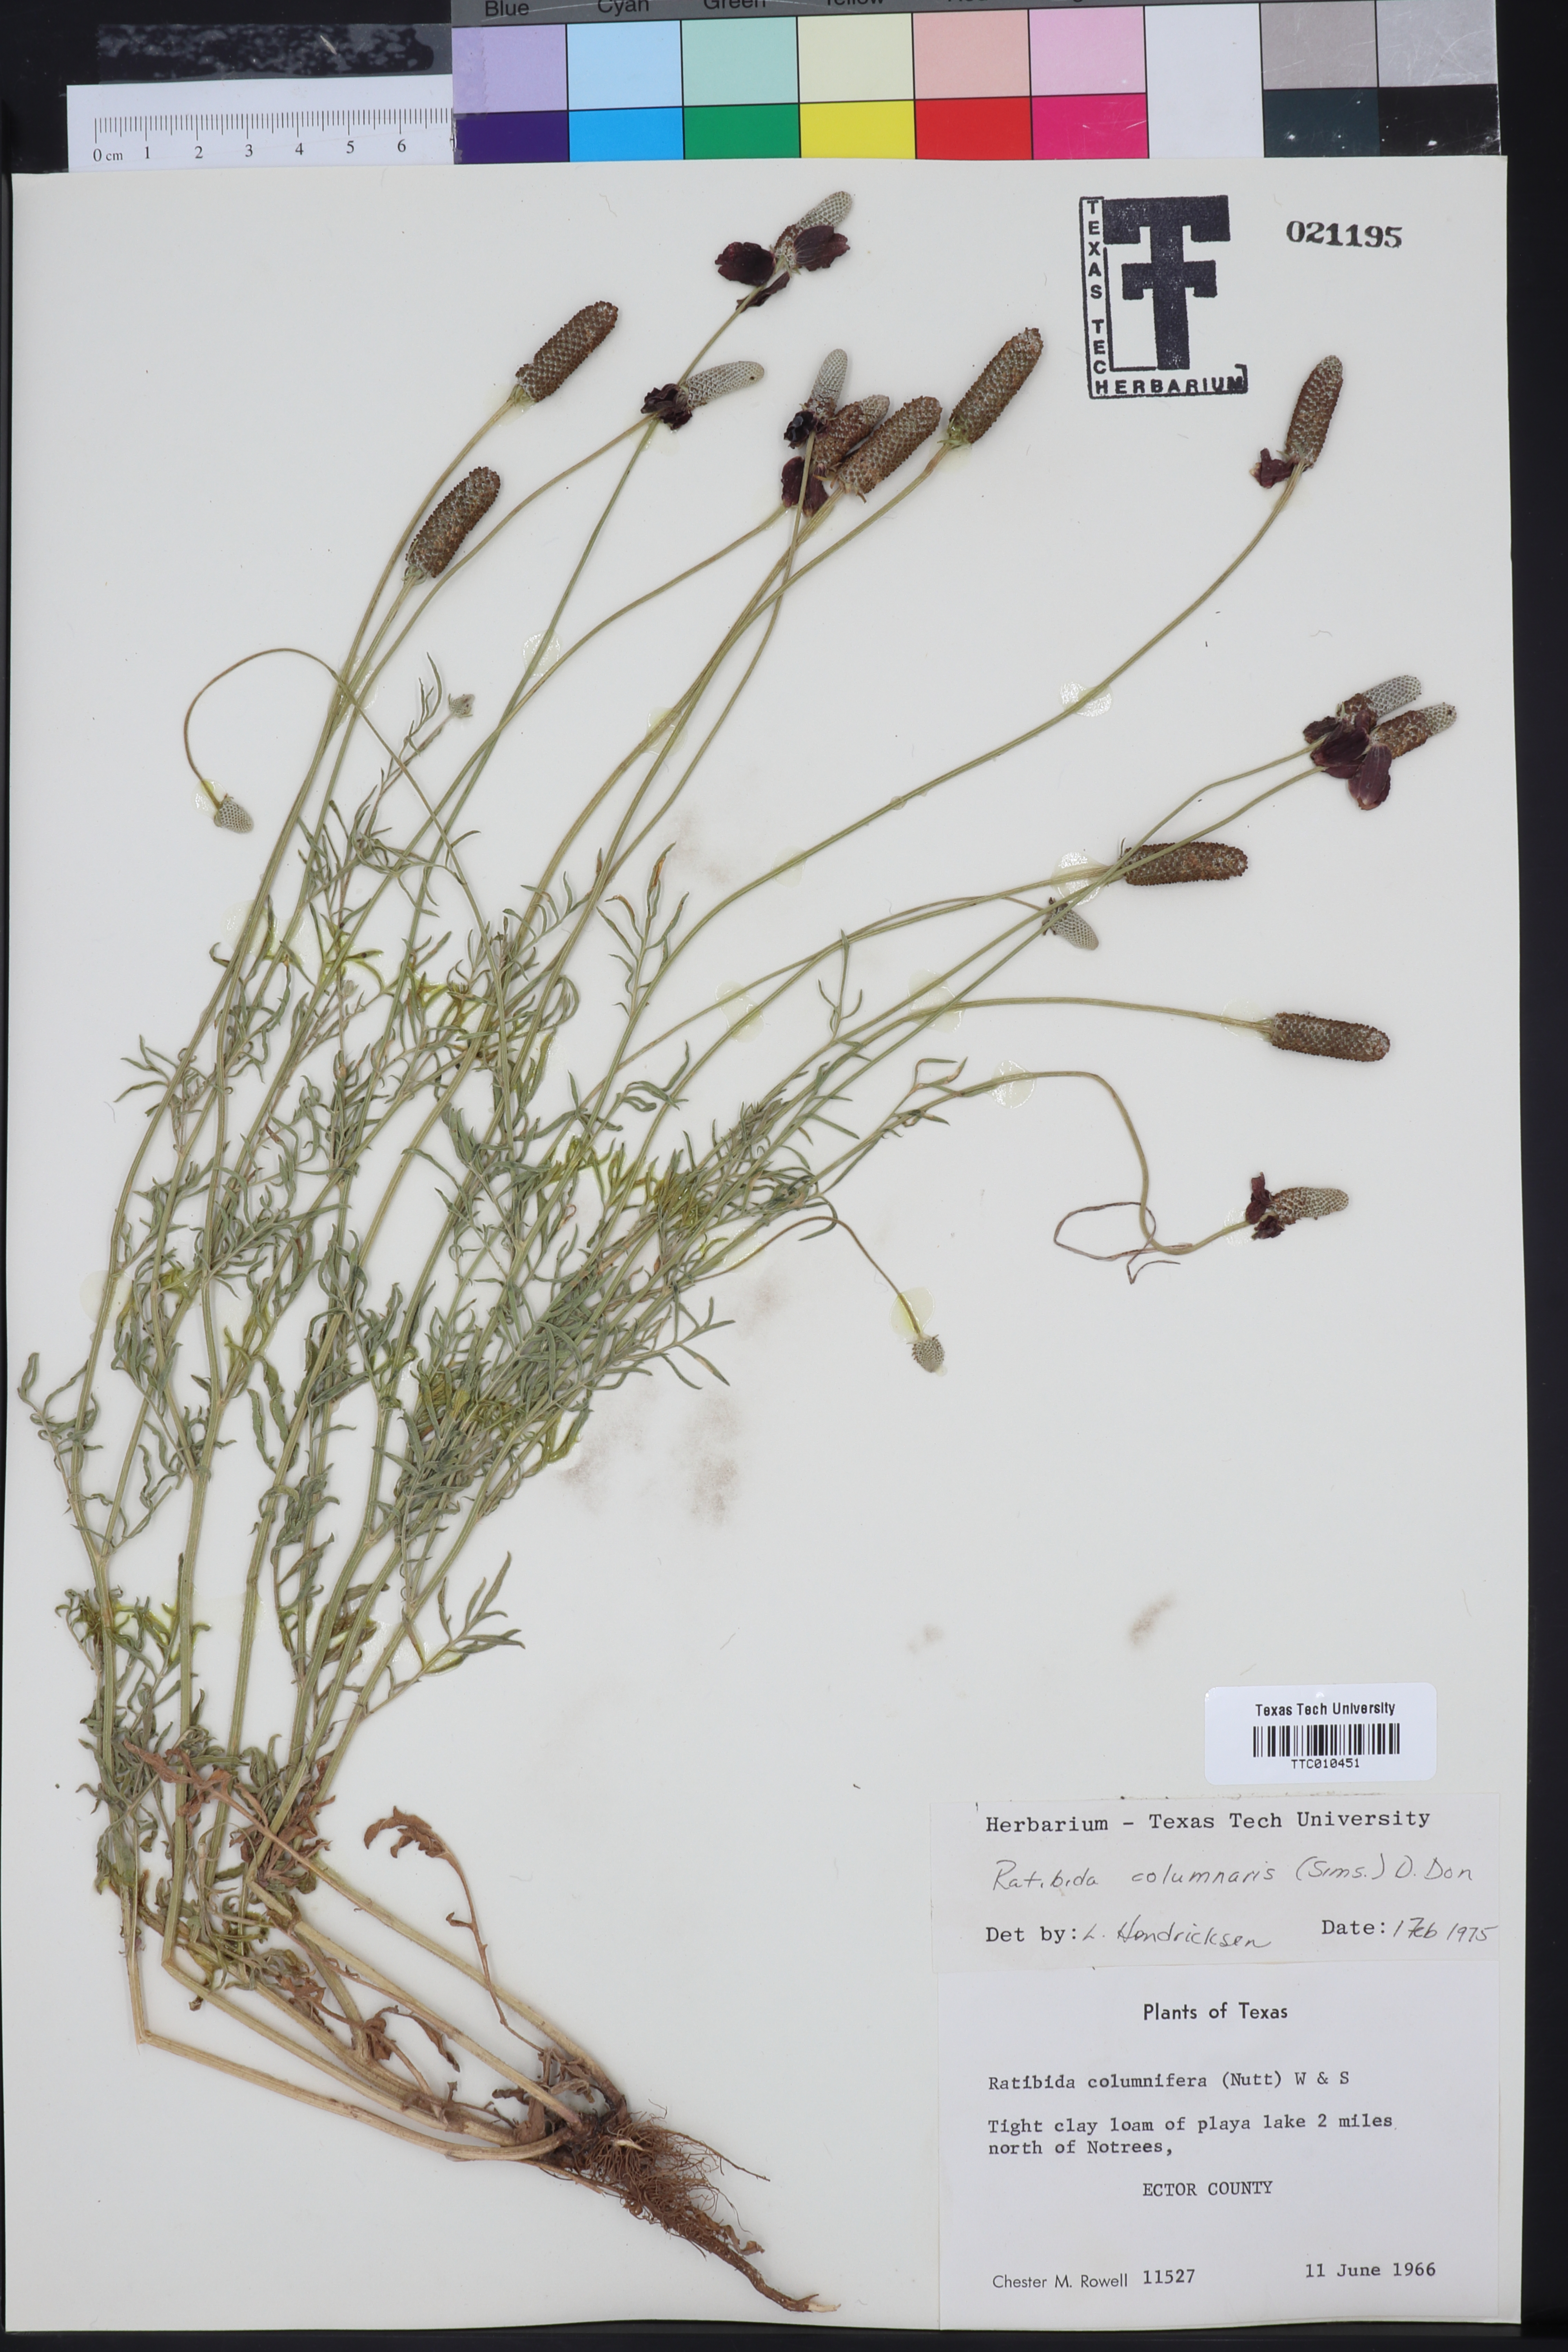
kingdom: Plantae
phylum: Tracheophyta
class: Magnoliopsida
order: Asterales
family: Asteraceae
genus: Ratibida
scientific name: Ratibida columnifera
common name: Prairie coneflower
